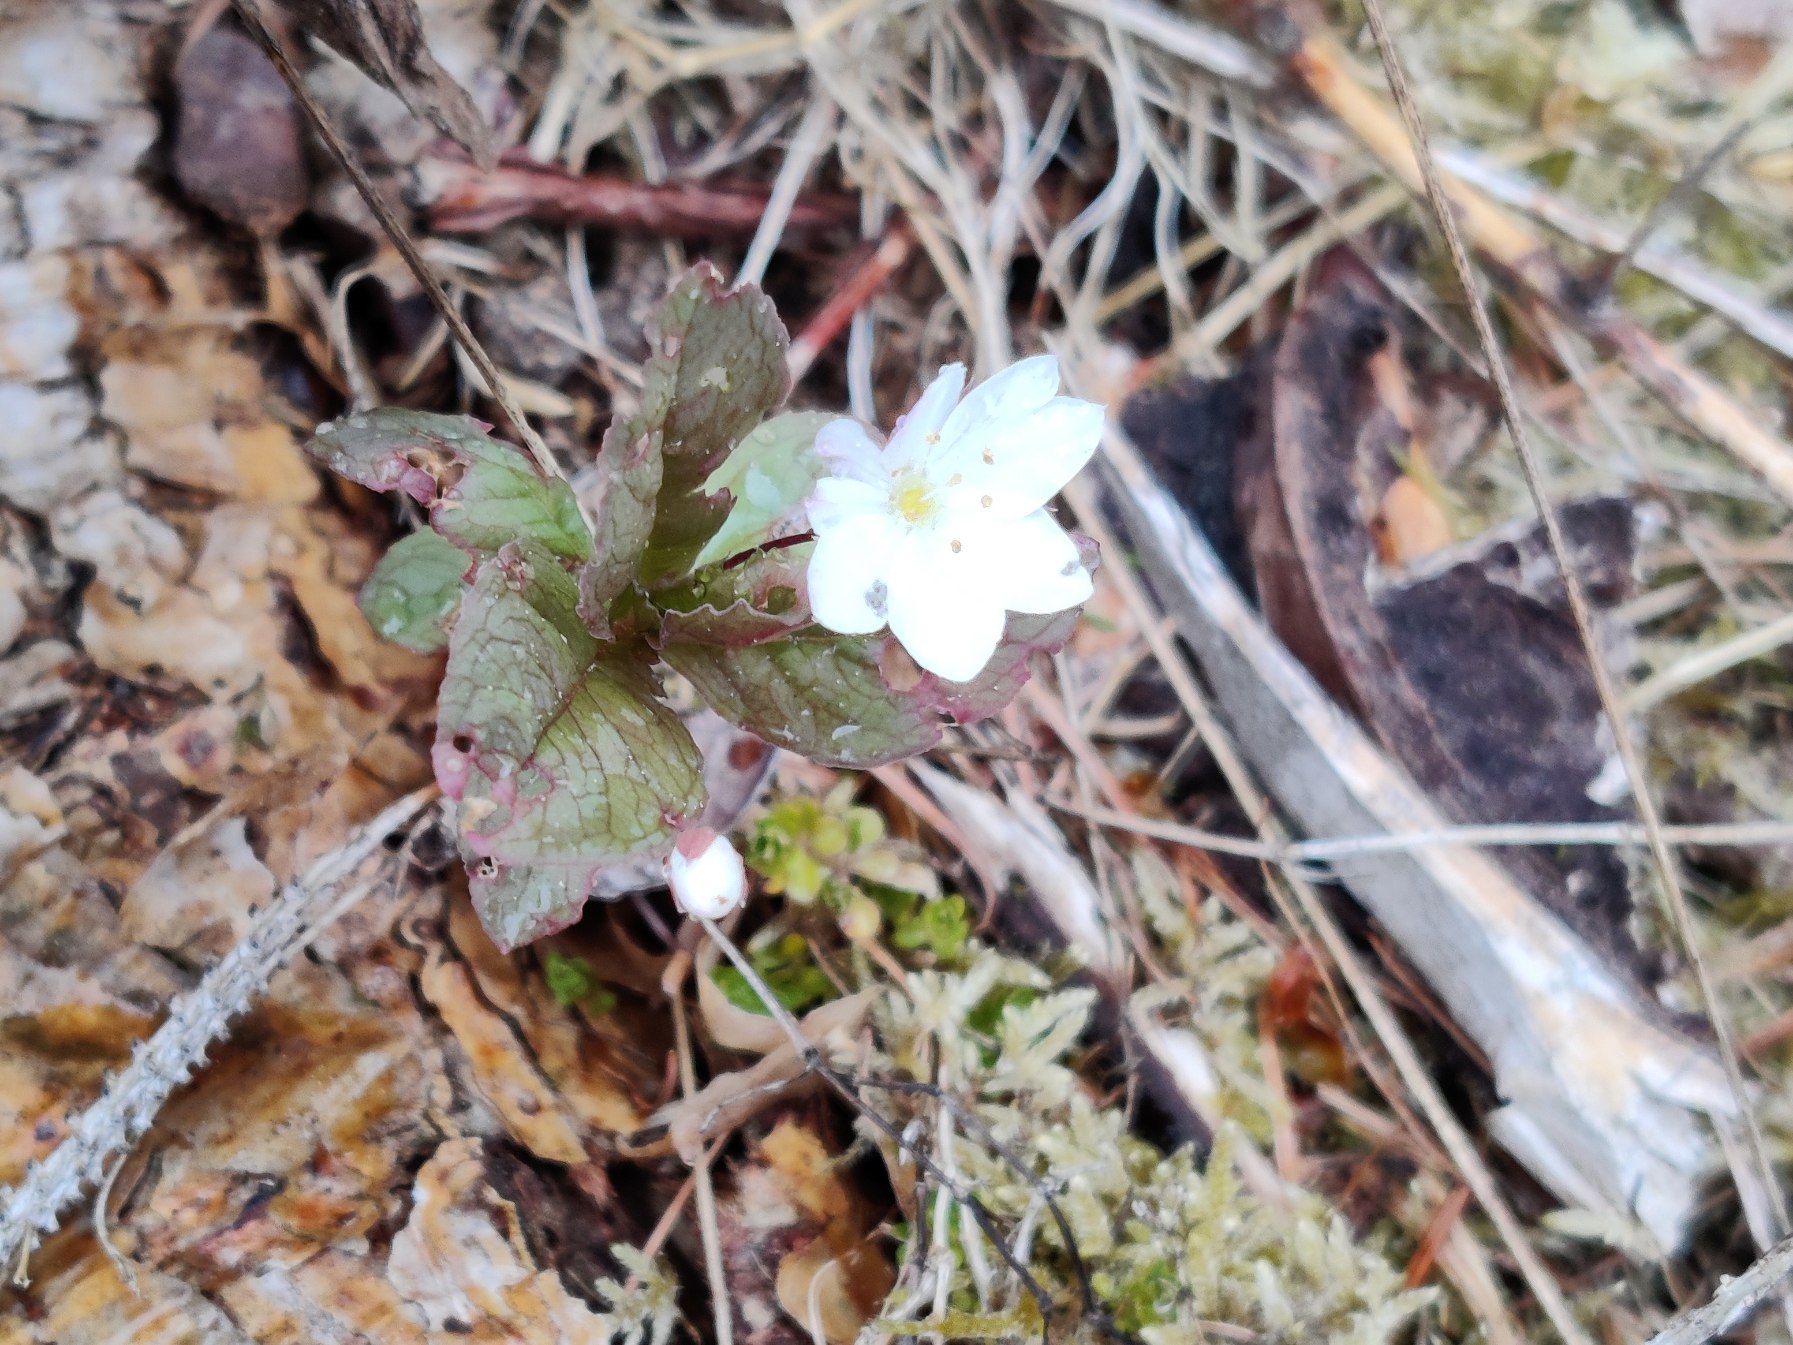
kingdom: Plantae
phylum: Tracheophyta
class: Magnoliopsida
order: Ericales
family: Primulaceae
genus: Lysimachia
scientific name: Lysimachia europaea
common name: Skovstjerne
